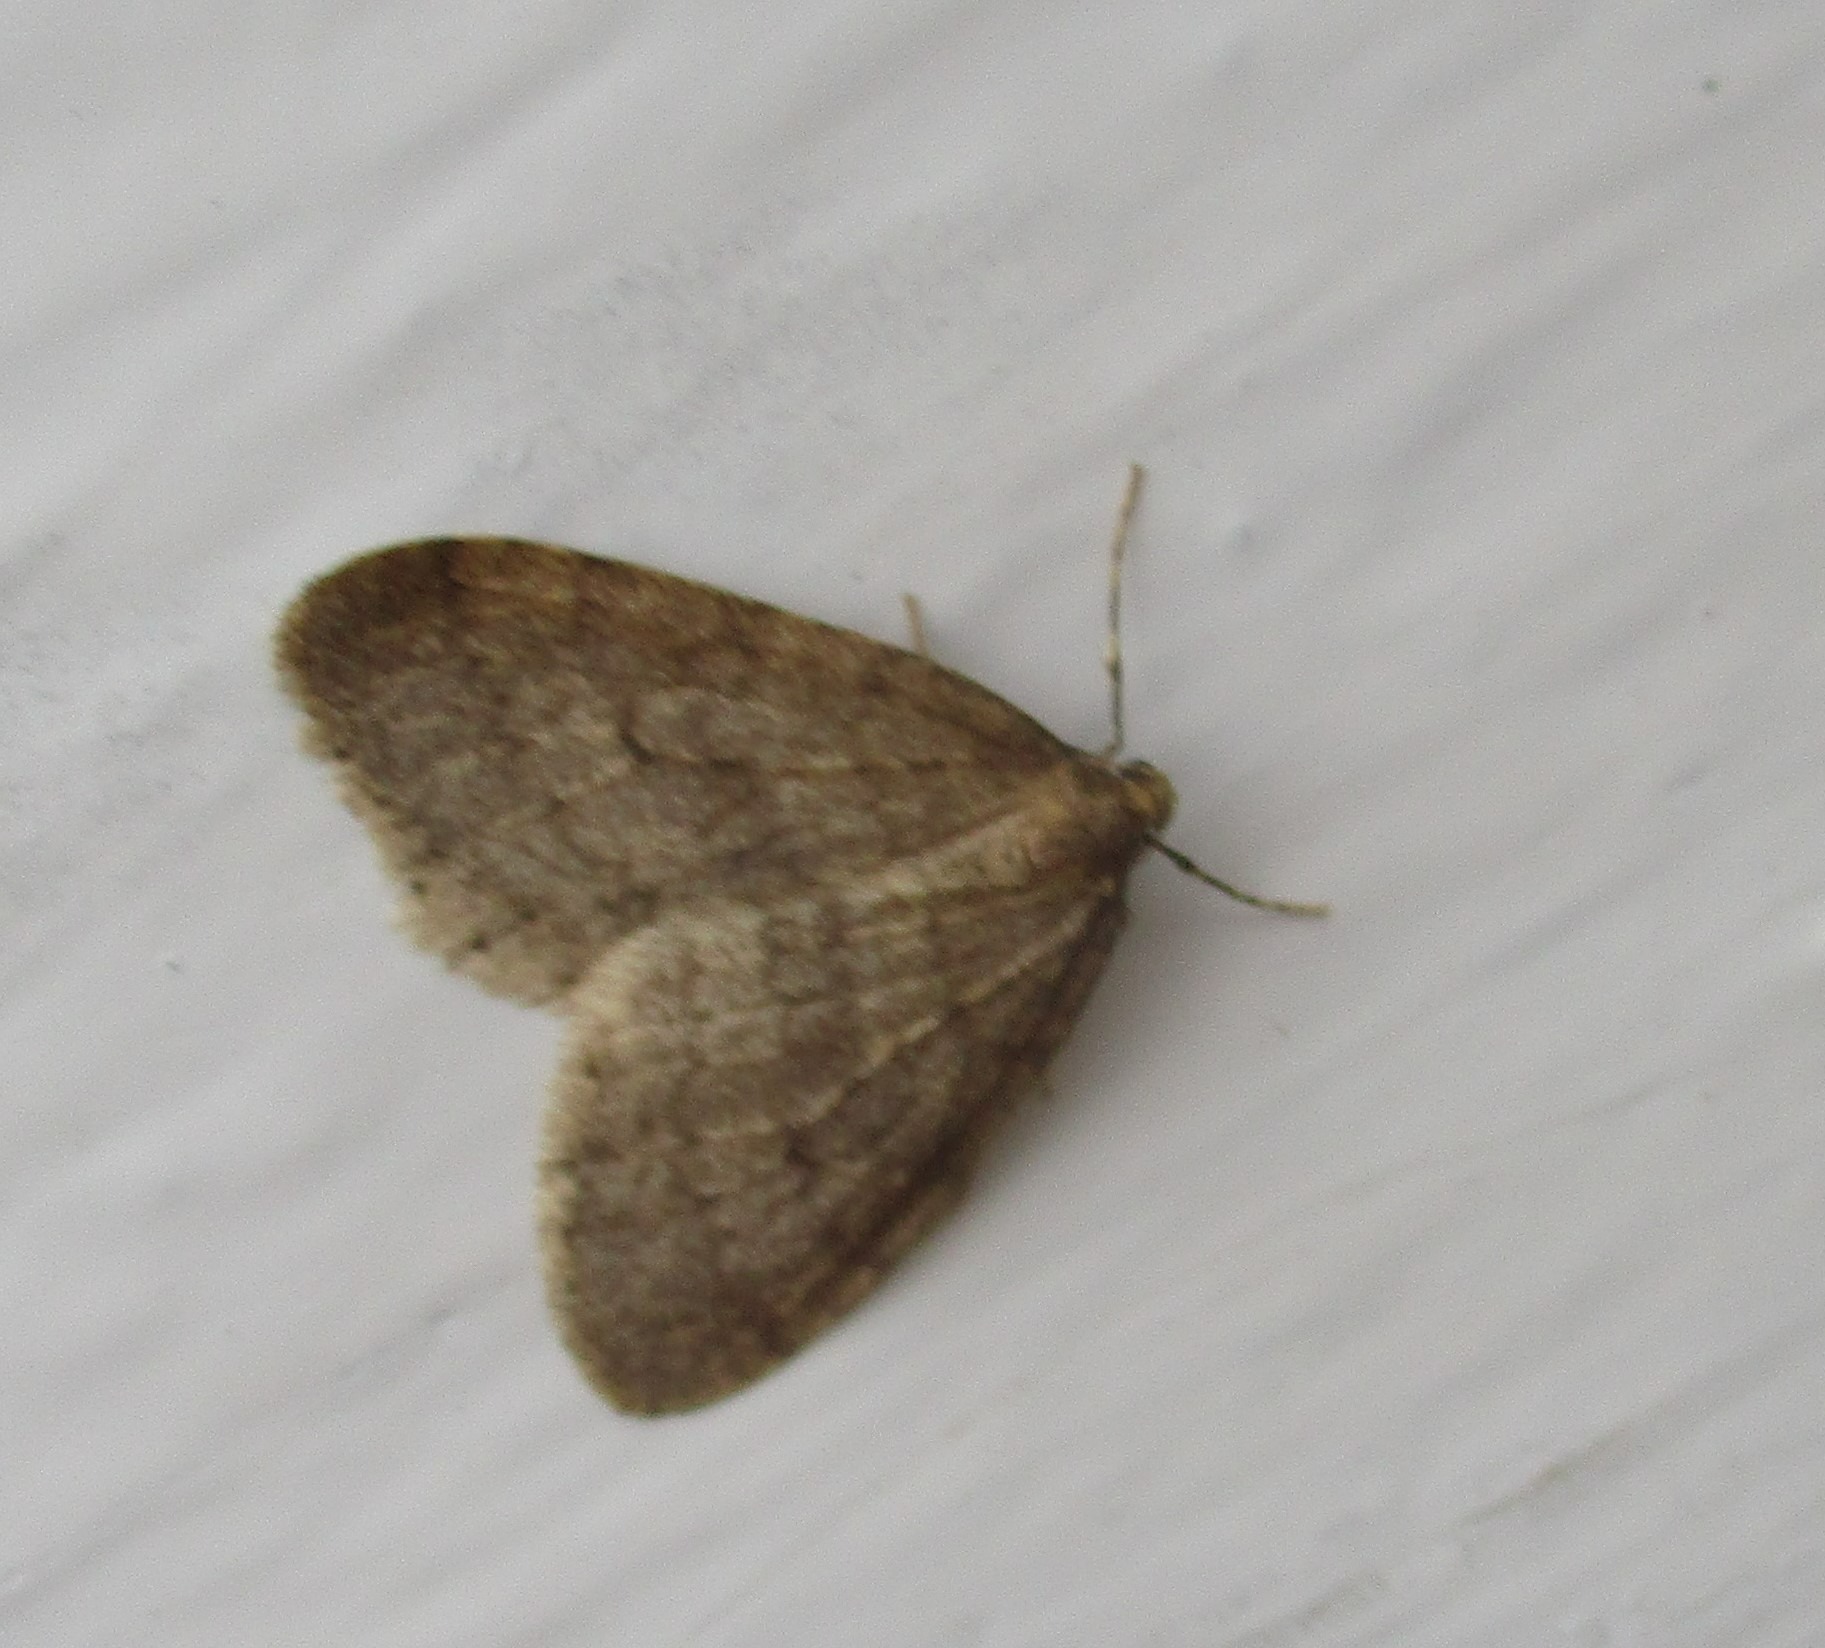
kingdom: Animalia
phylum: Arthropoda
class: Insecta
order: Lepidoptera
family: Geometridae
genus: Operophtera
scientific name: Operophtera brumata
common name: Lille frostmåler
